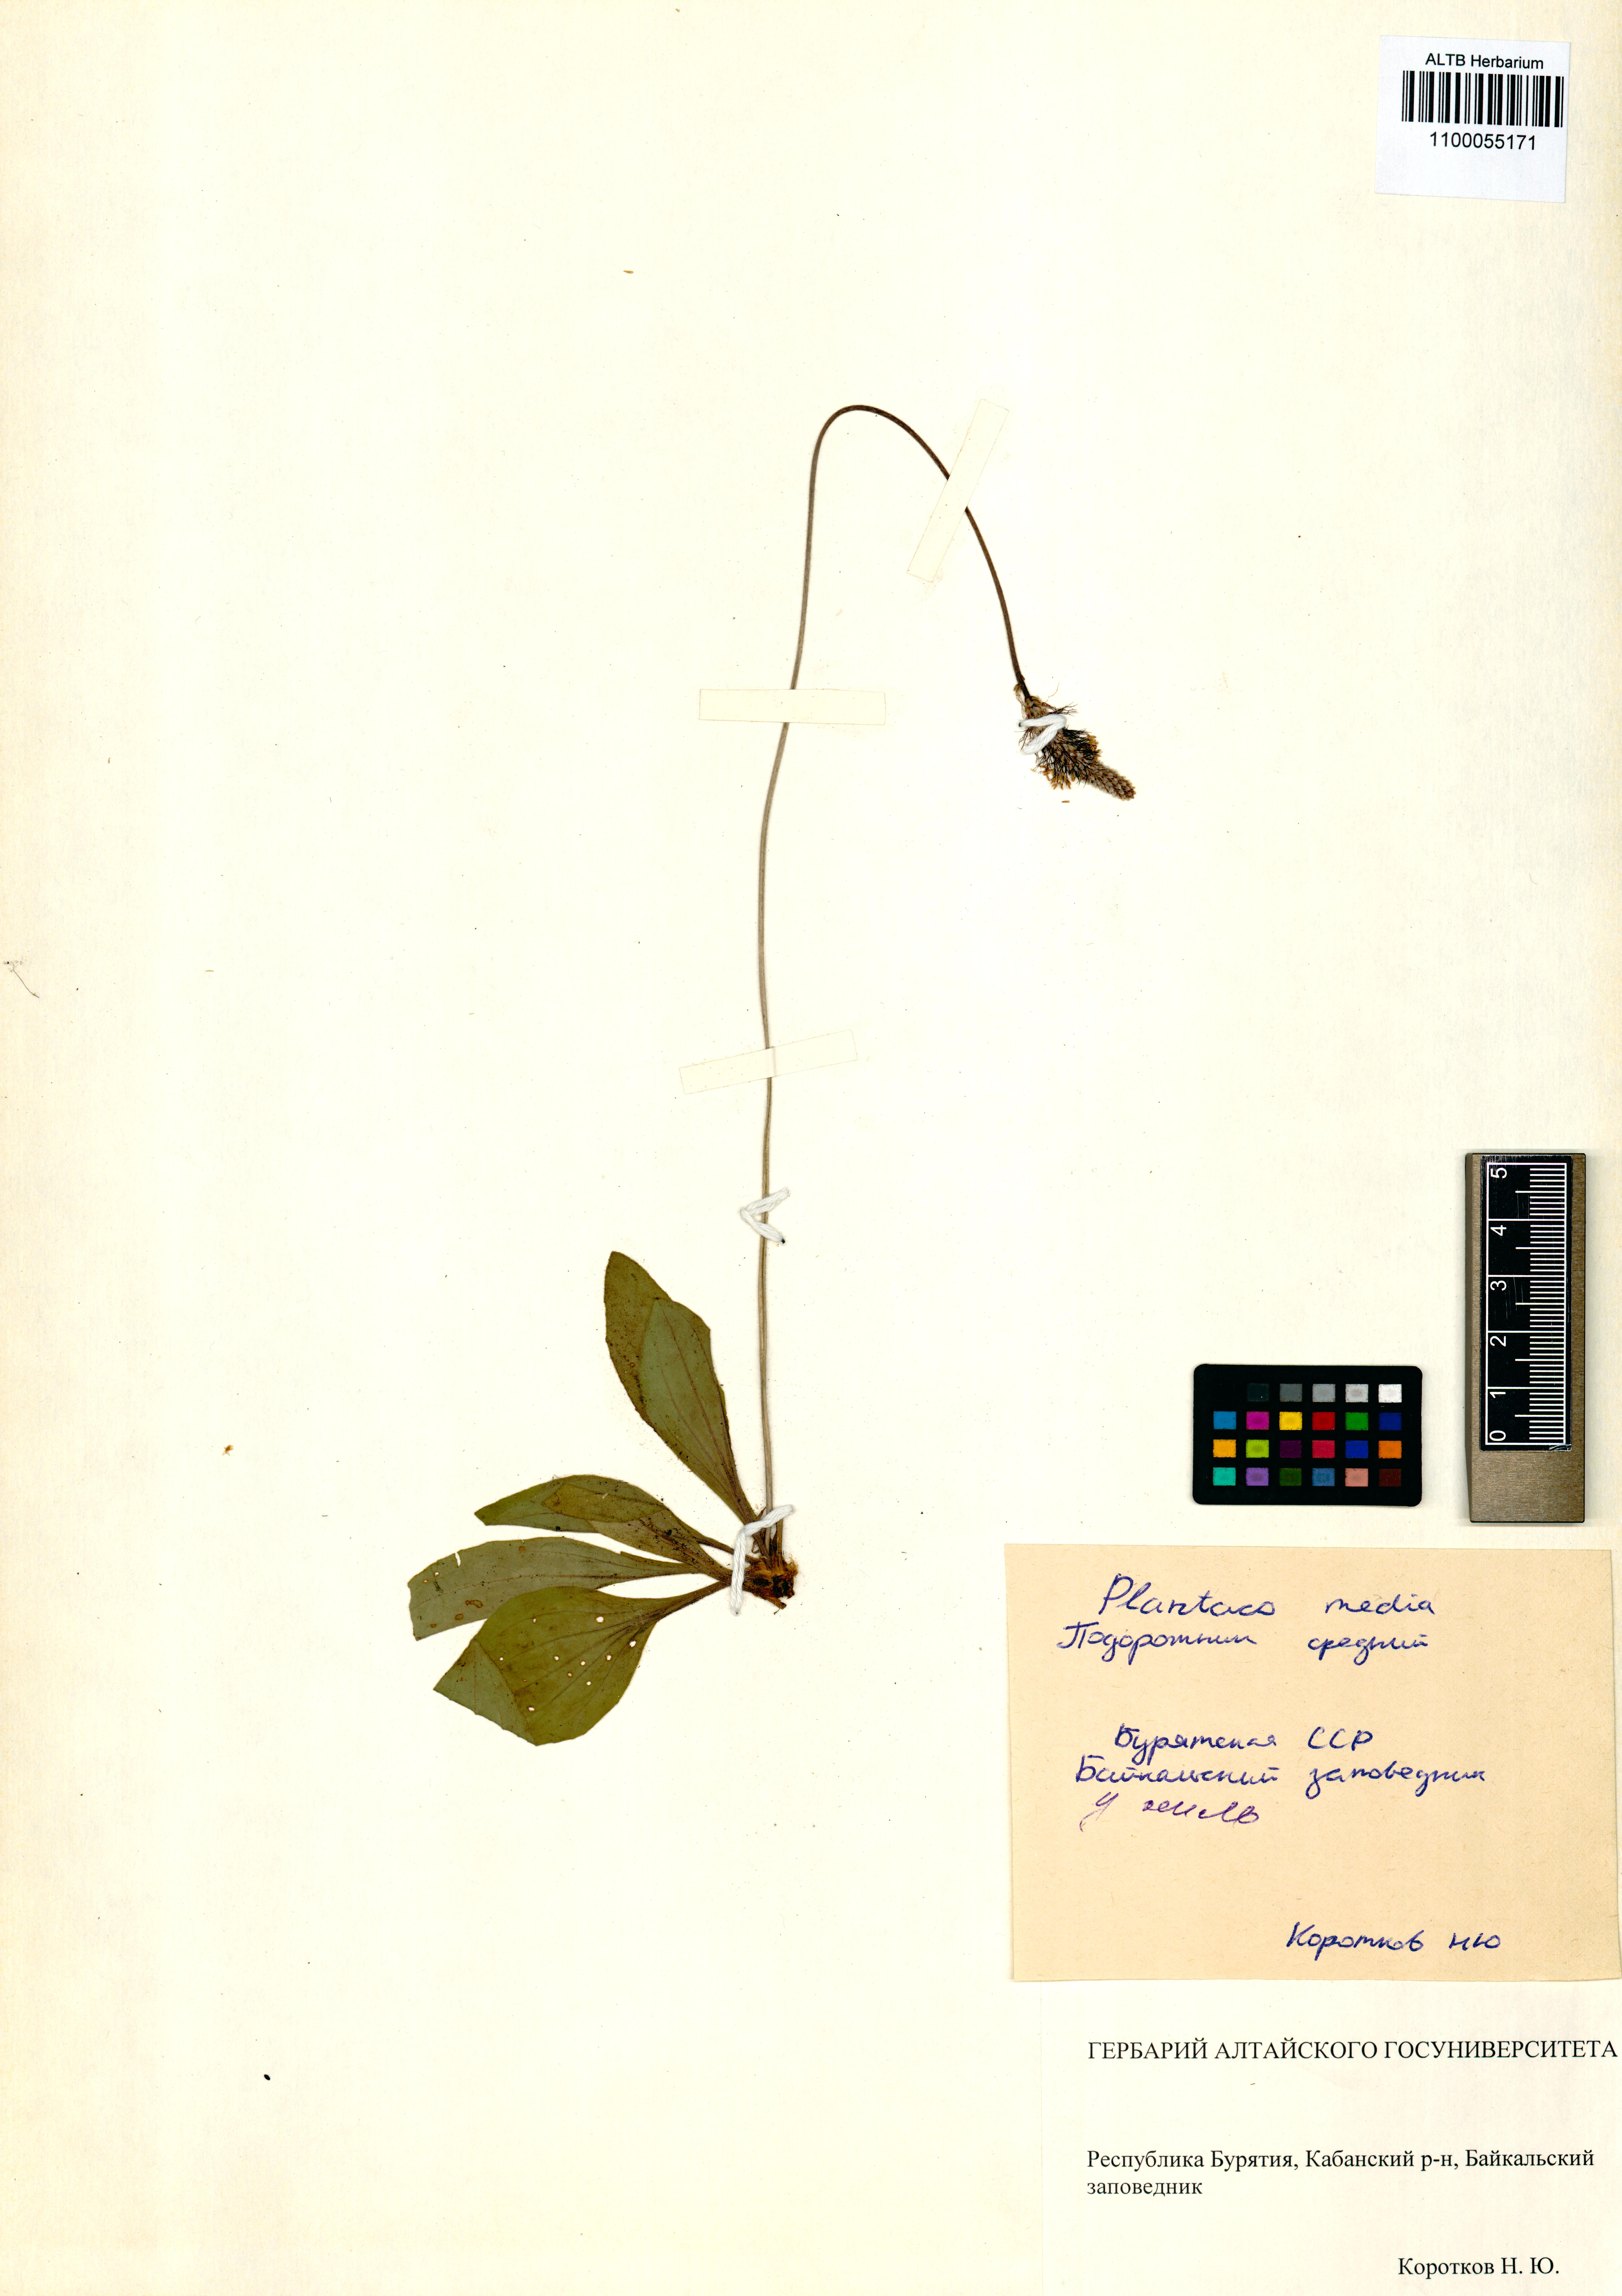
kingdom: Plantae
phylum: Tracheophyta
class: Magnoliopsida
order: Lamiales
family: Plantaginaceae
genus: Plantago
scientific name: Plantago media
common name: Hoary plantain
